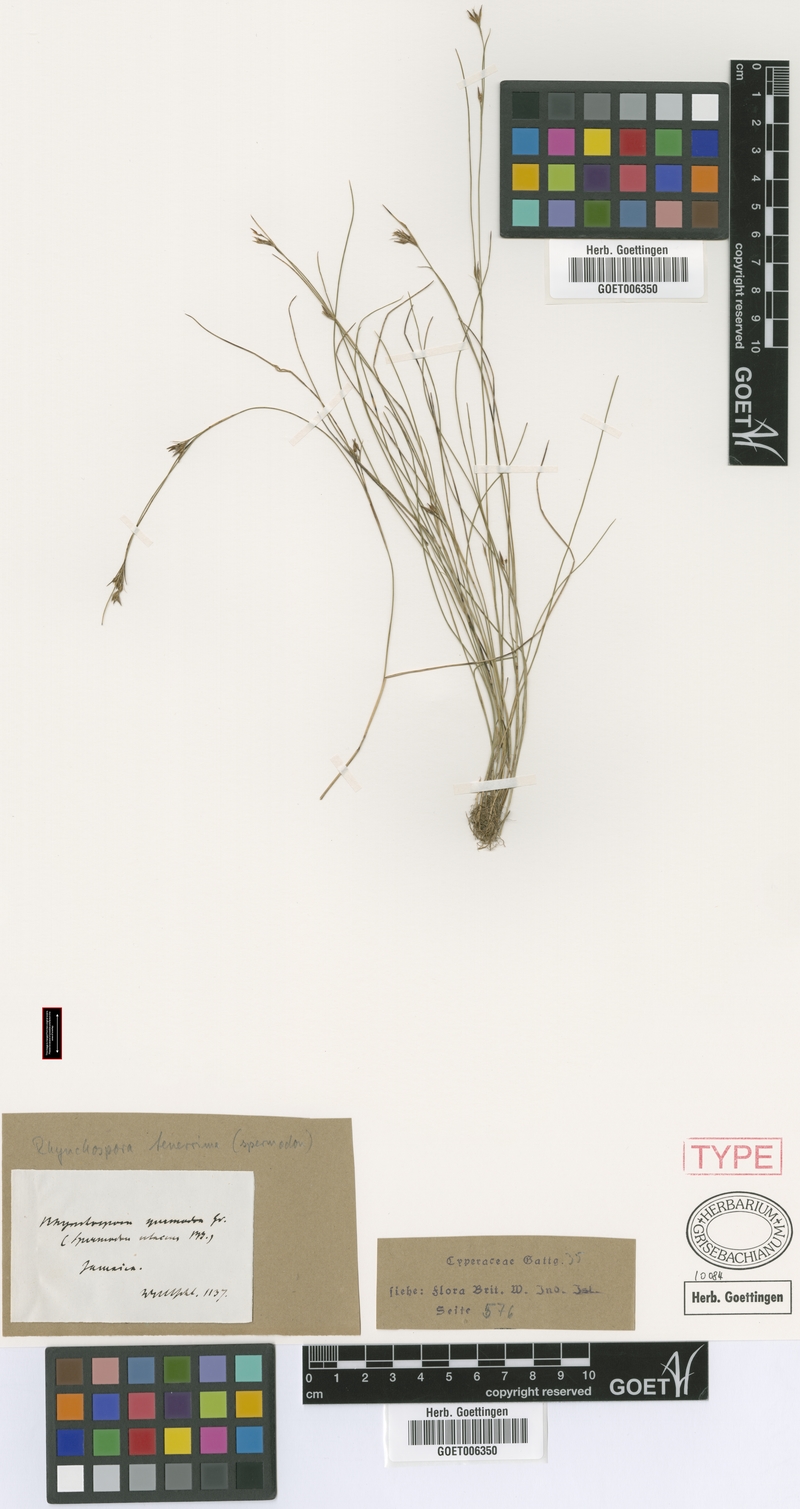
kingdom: Plantae
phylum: Tracheophyta
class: Liliopsida
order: Poales
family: Cyperaceae
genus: Rhynchospora
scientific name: Rhynchospora tenerrima
